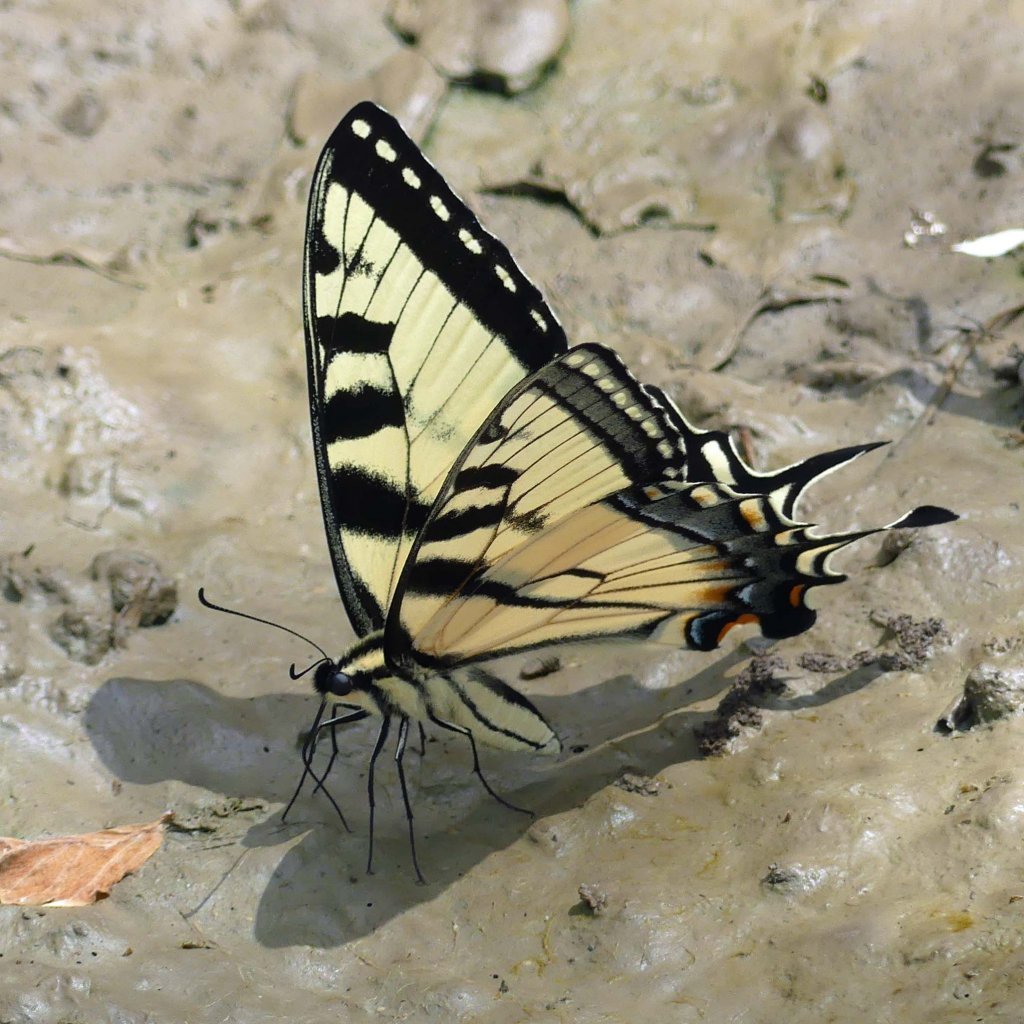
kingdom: Animalia
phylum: Arthropoda
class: Insecta
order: Lepidoptera
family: Papilionidae
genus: Papilio
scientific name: Papilio
